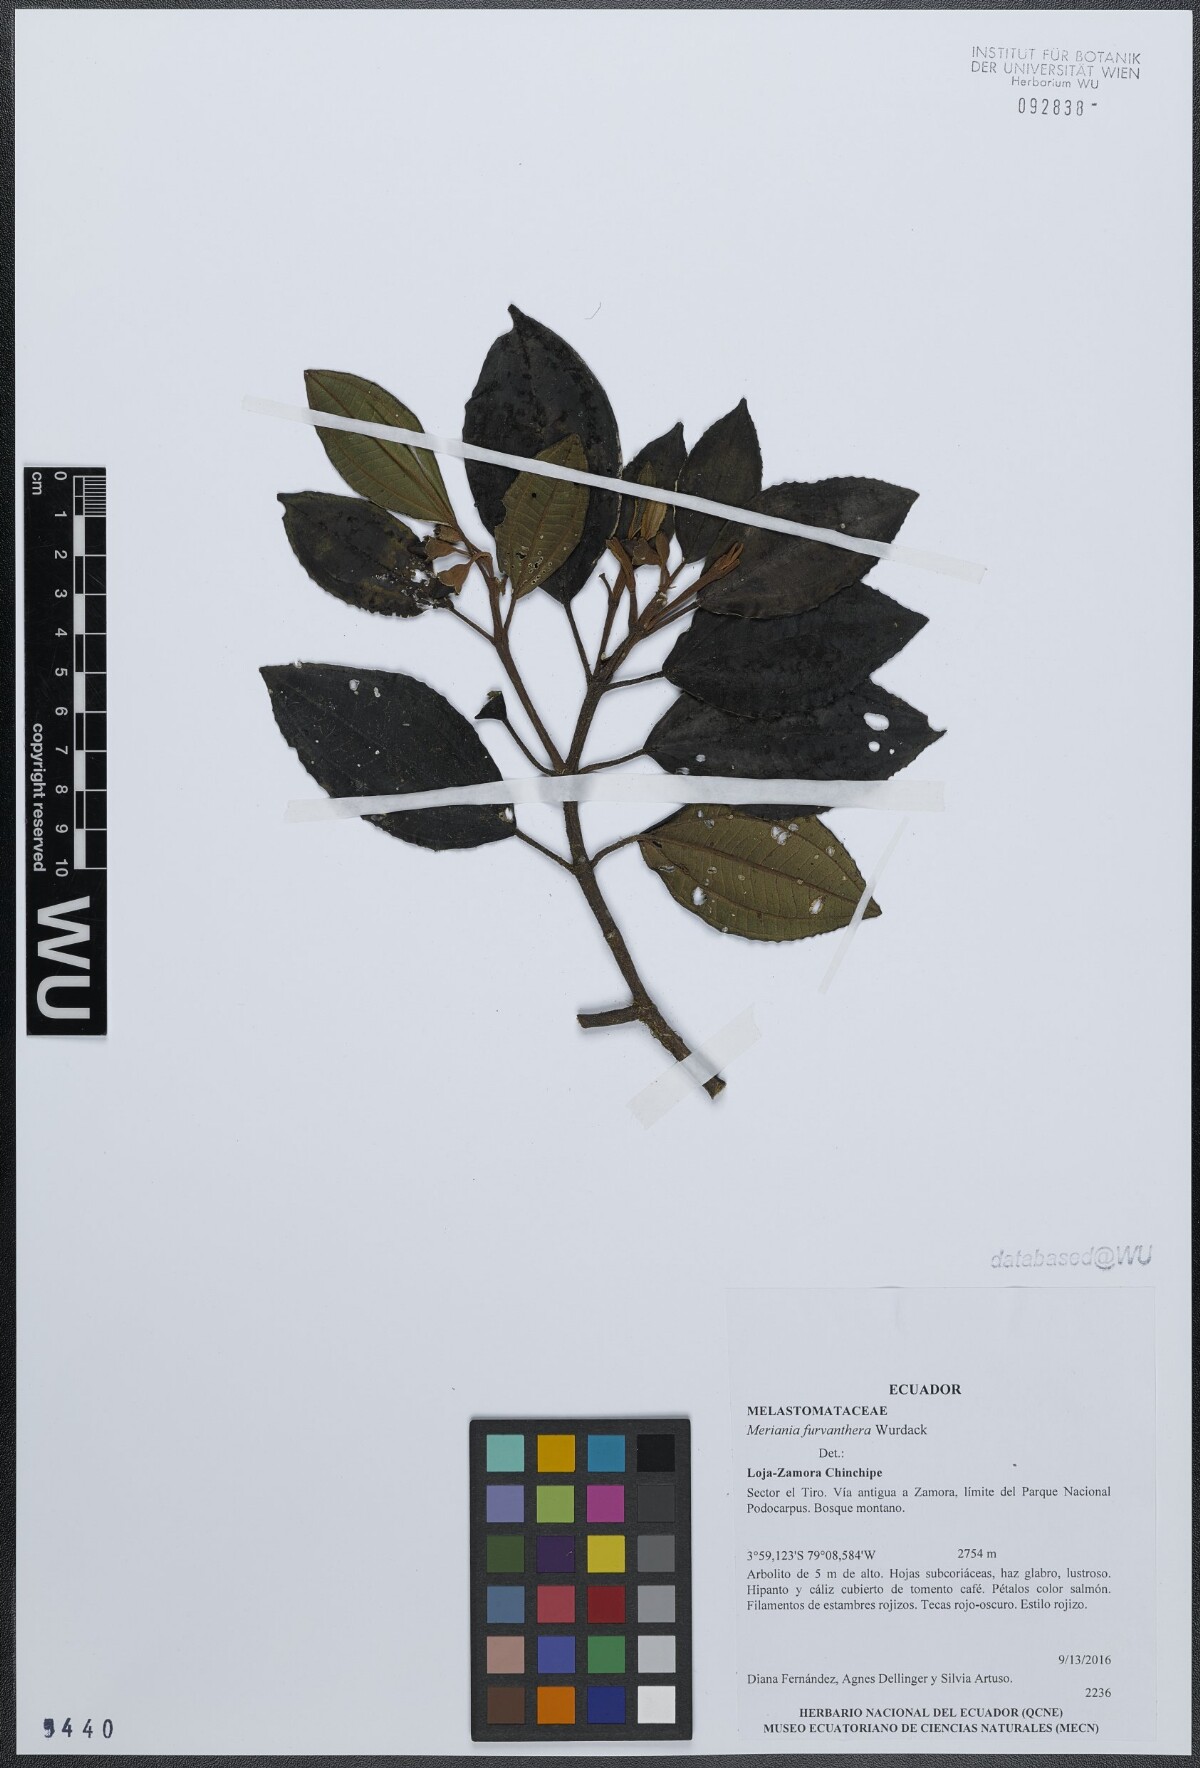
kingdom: Plantae
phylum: Tracheophyta
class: Magnoliopsida
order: Myrtales
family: Melastomataceae
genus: Meriania
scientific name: Meriania furvanthera
